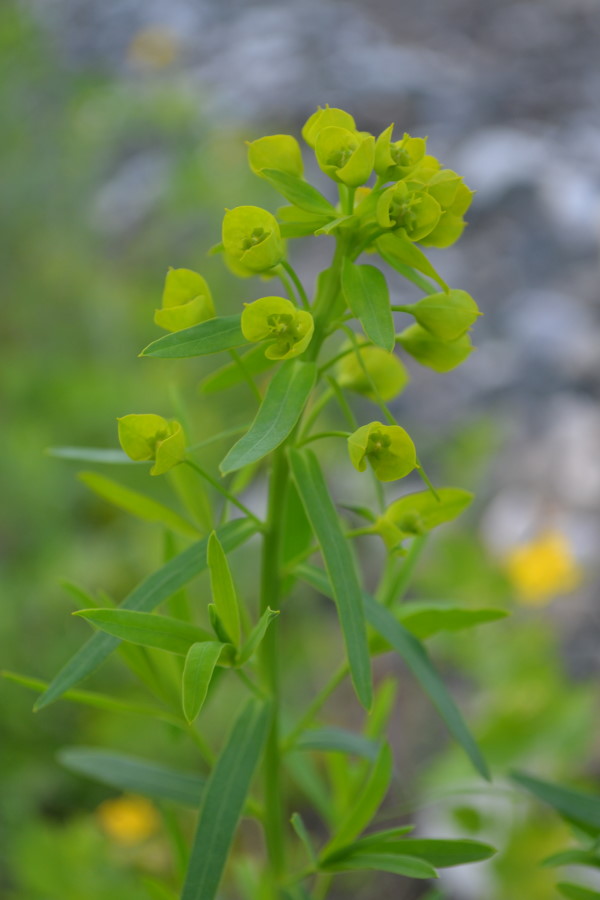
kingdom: Plantae
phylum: Tracheophyta
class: Magnoliopsida
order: Malpighiales
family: Euphorbiaceae
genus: Euphorbia
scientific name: Euphorbia virgata
